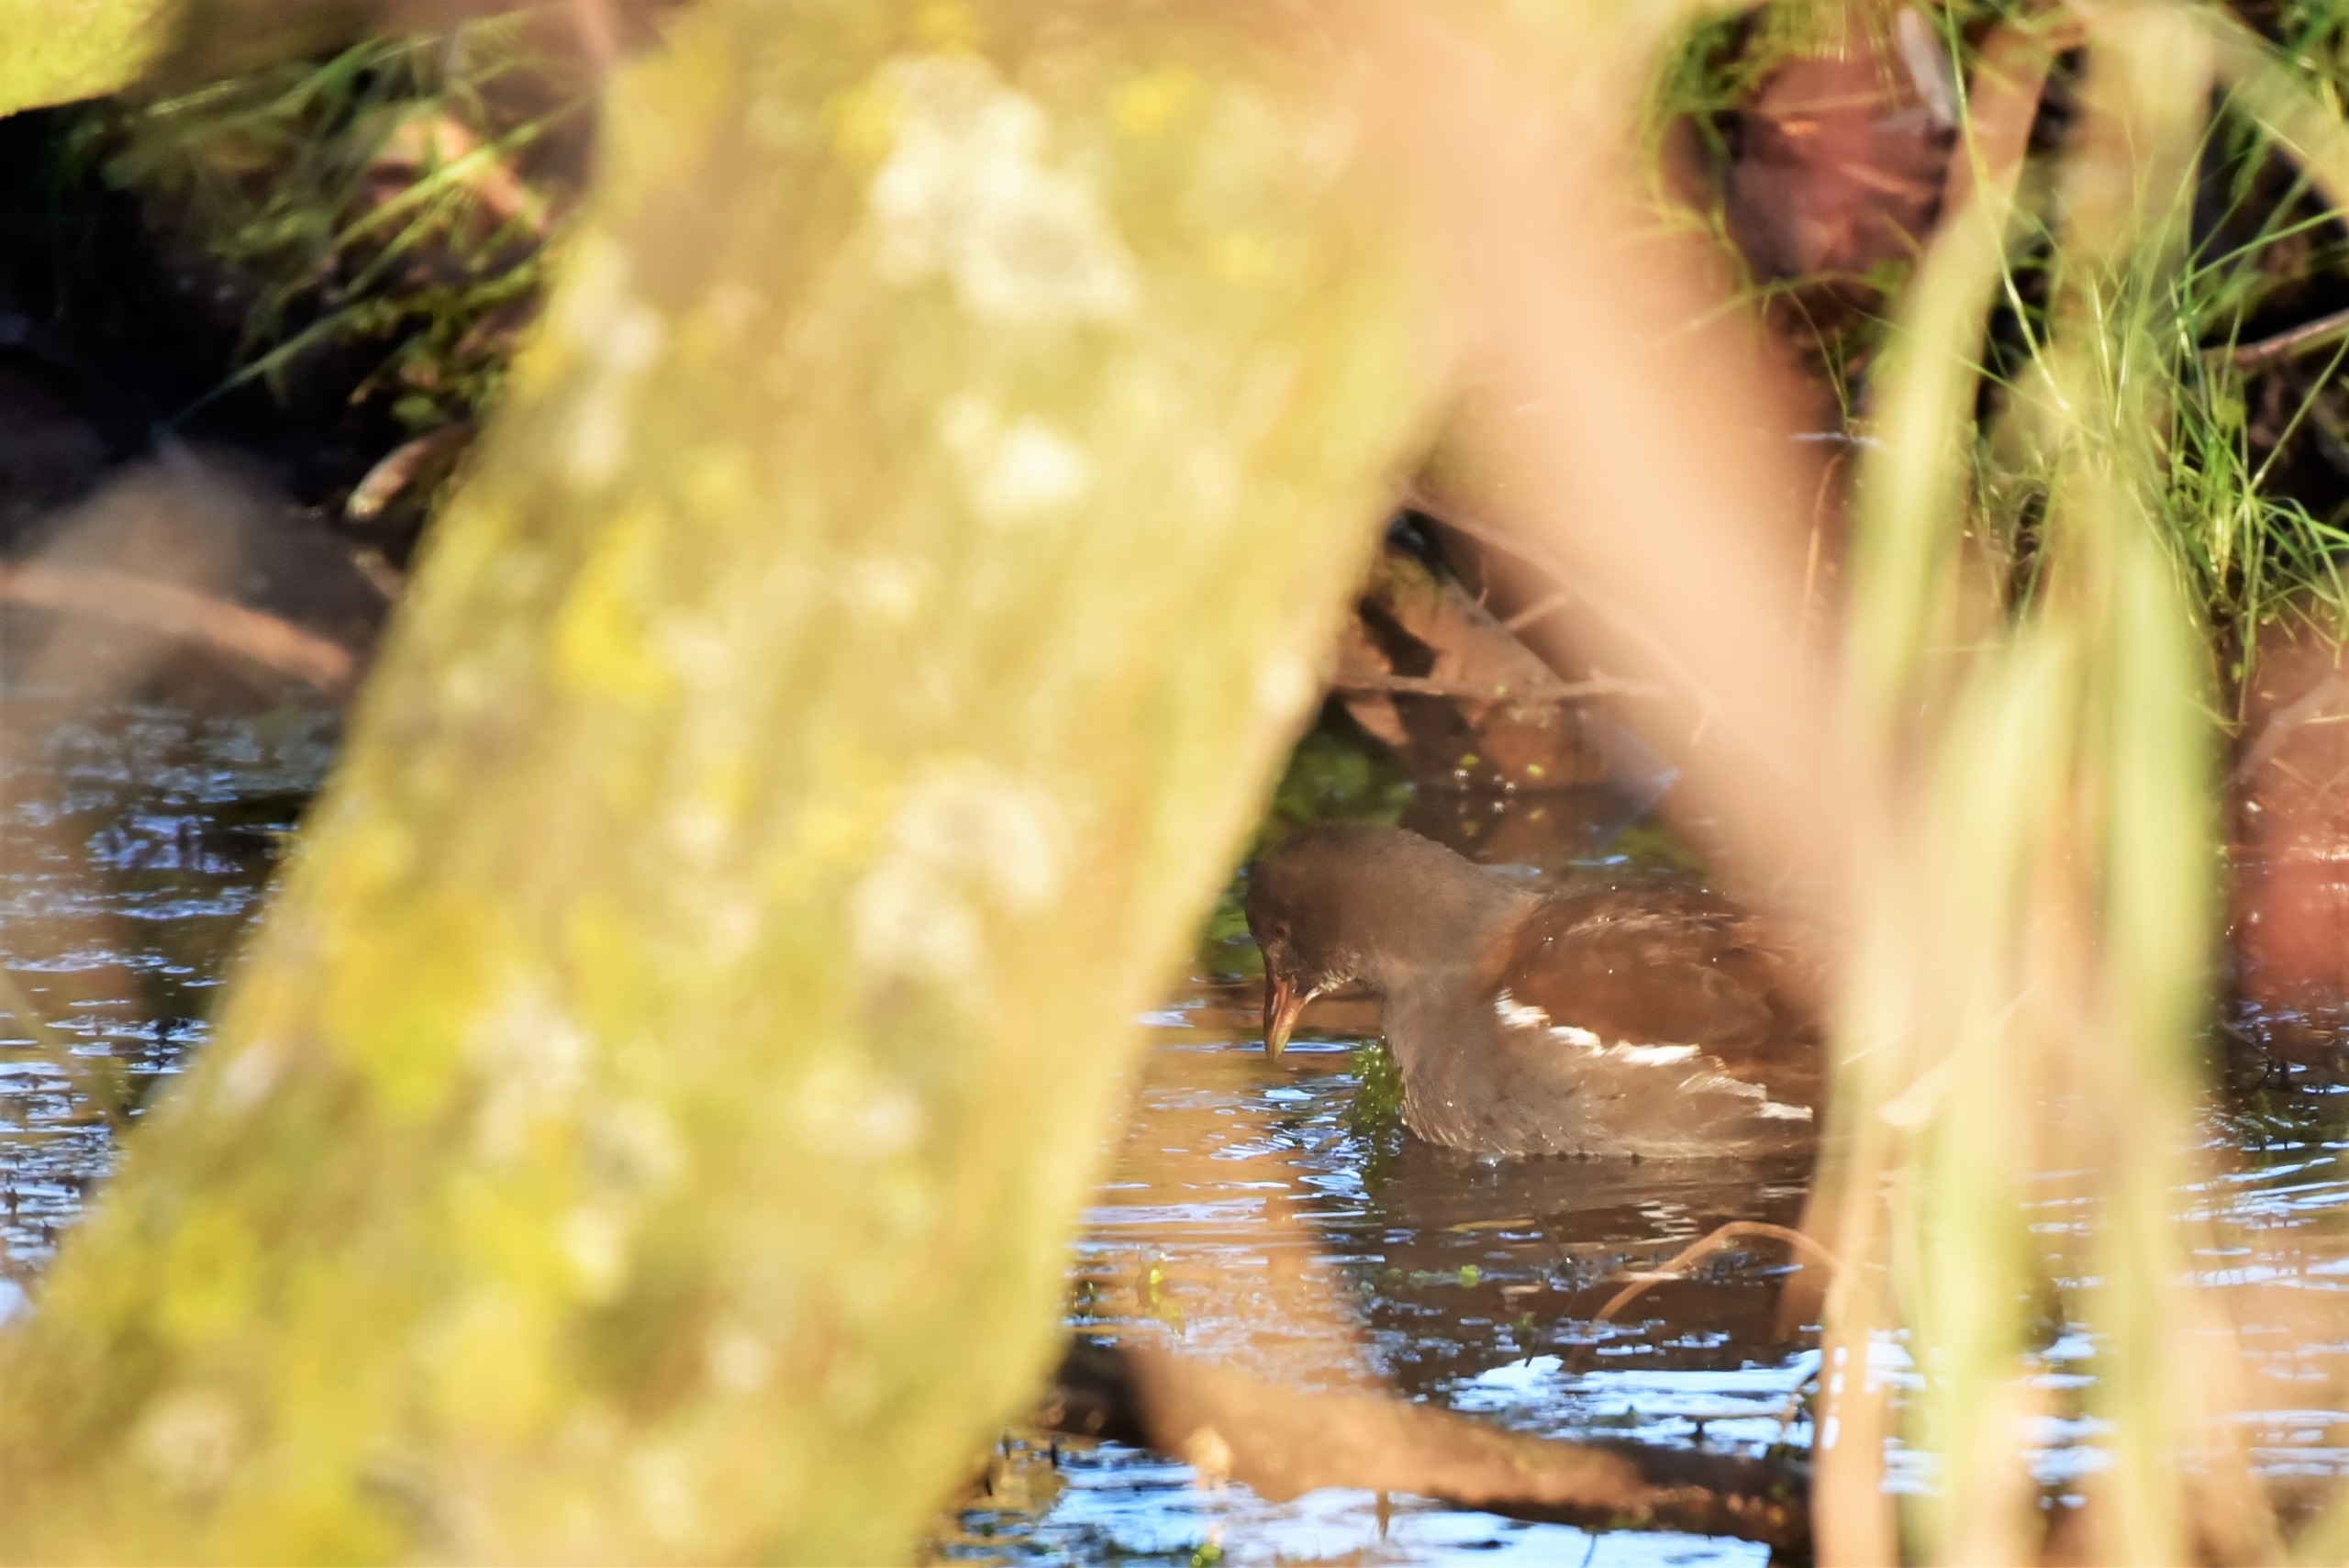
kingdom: Animalia
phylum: Chordata
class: Aves
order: Gruiformes
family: Rallidae
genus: Gallinula
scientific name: Gallinula chloropus
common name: Grønbenet rørhøne
